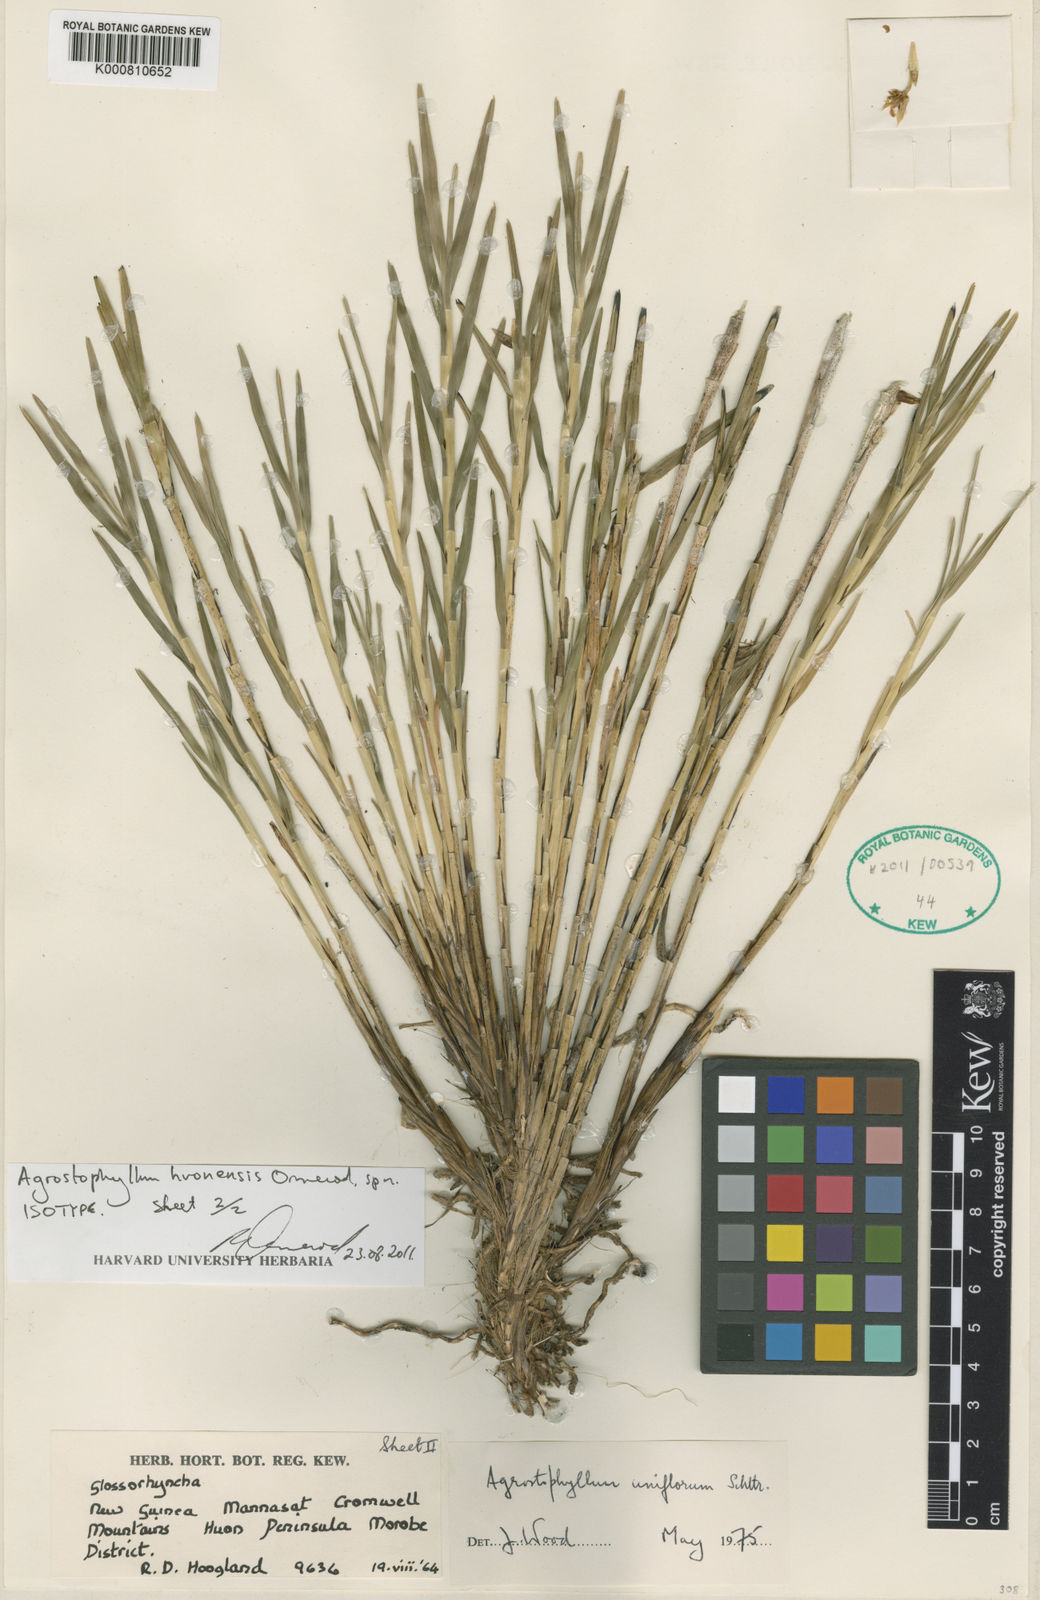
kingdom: Plantae
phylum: Tracheophyta
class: Liliopsida
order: Asparagales
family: Orchidaceae
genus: Agrostophyllum
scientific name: Agrostophyllum
